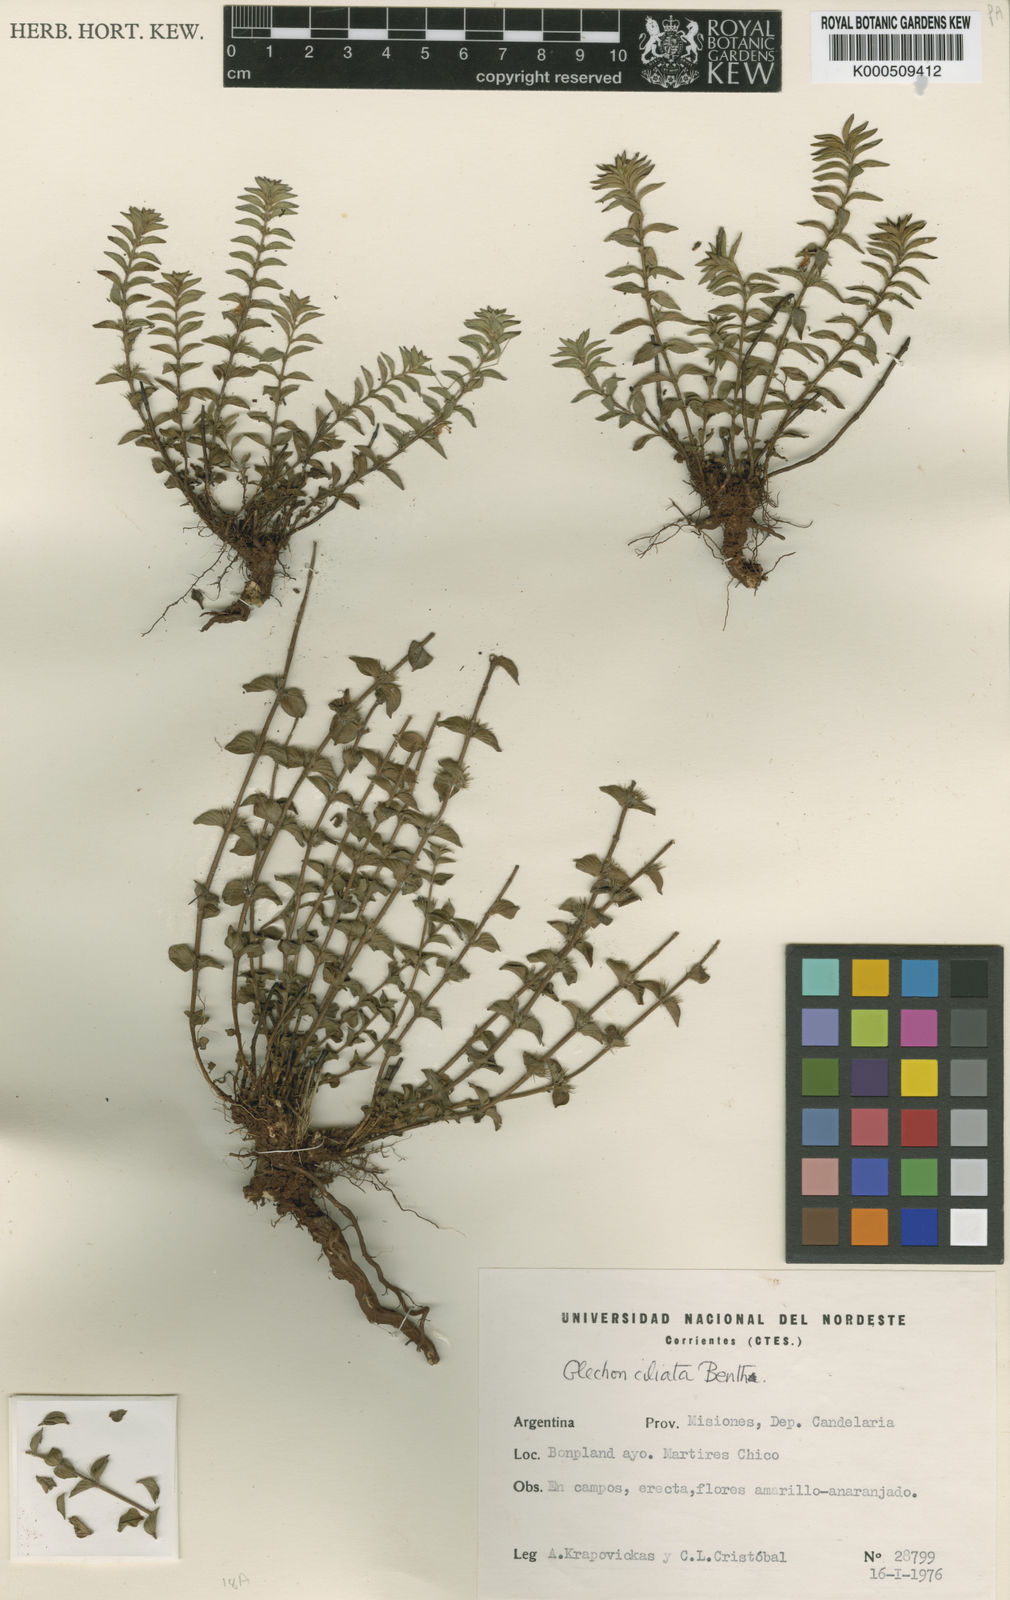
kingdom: Plantae
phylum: Tracheophyta
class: Magnoliopsida
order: Lamiales
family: Lamiaceae
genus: Glechon
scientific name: Glechon ciliata
